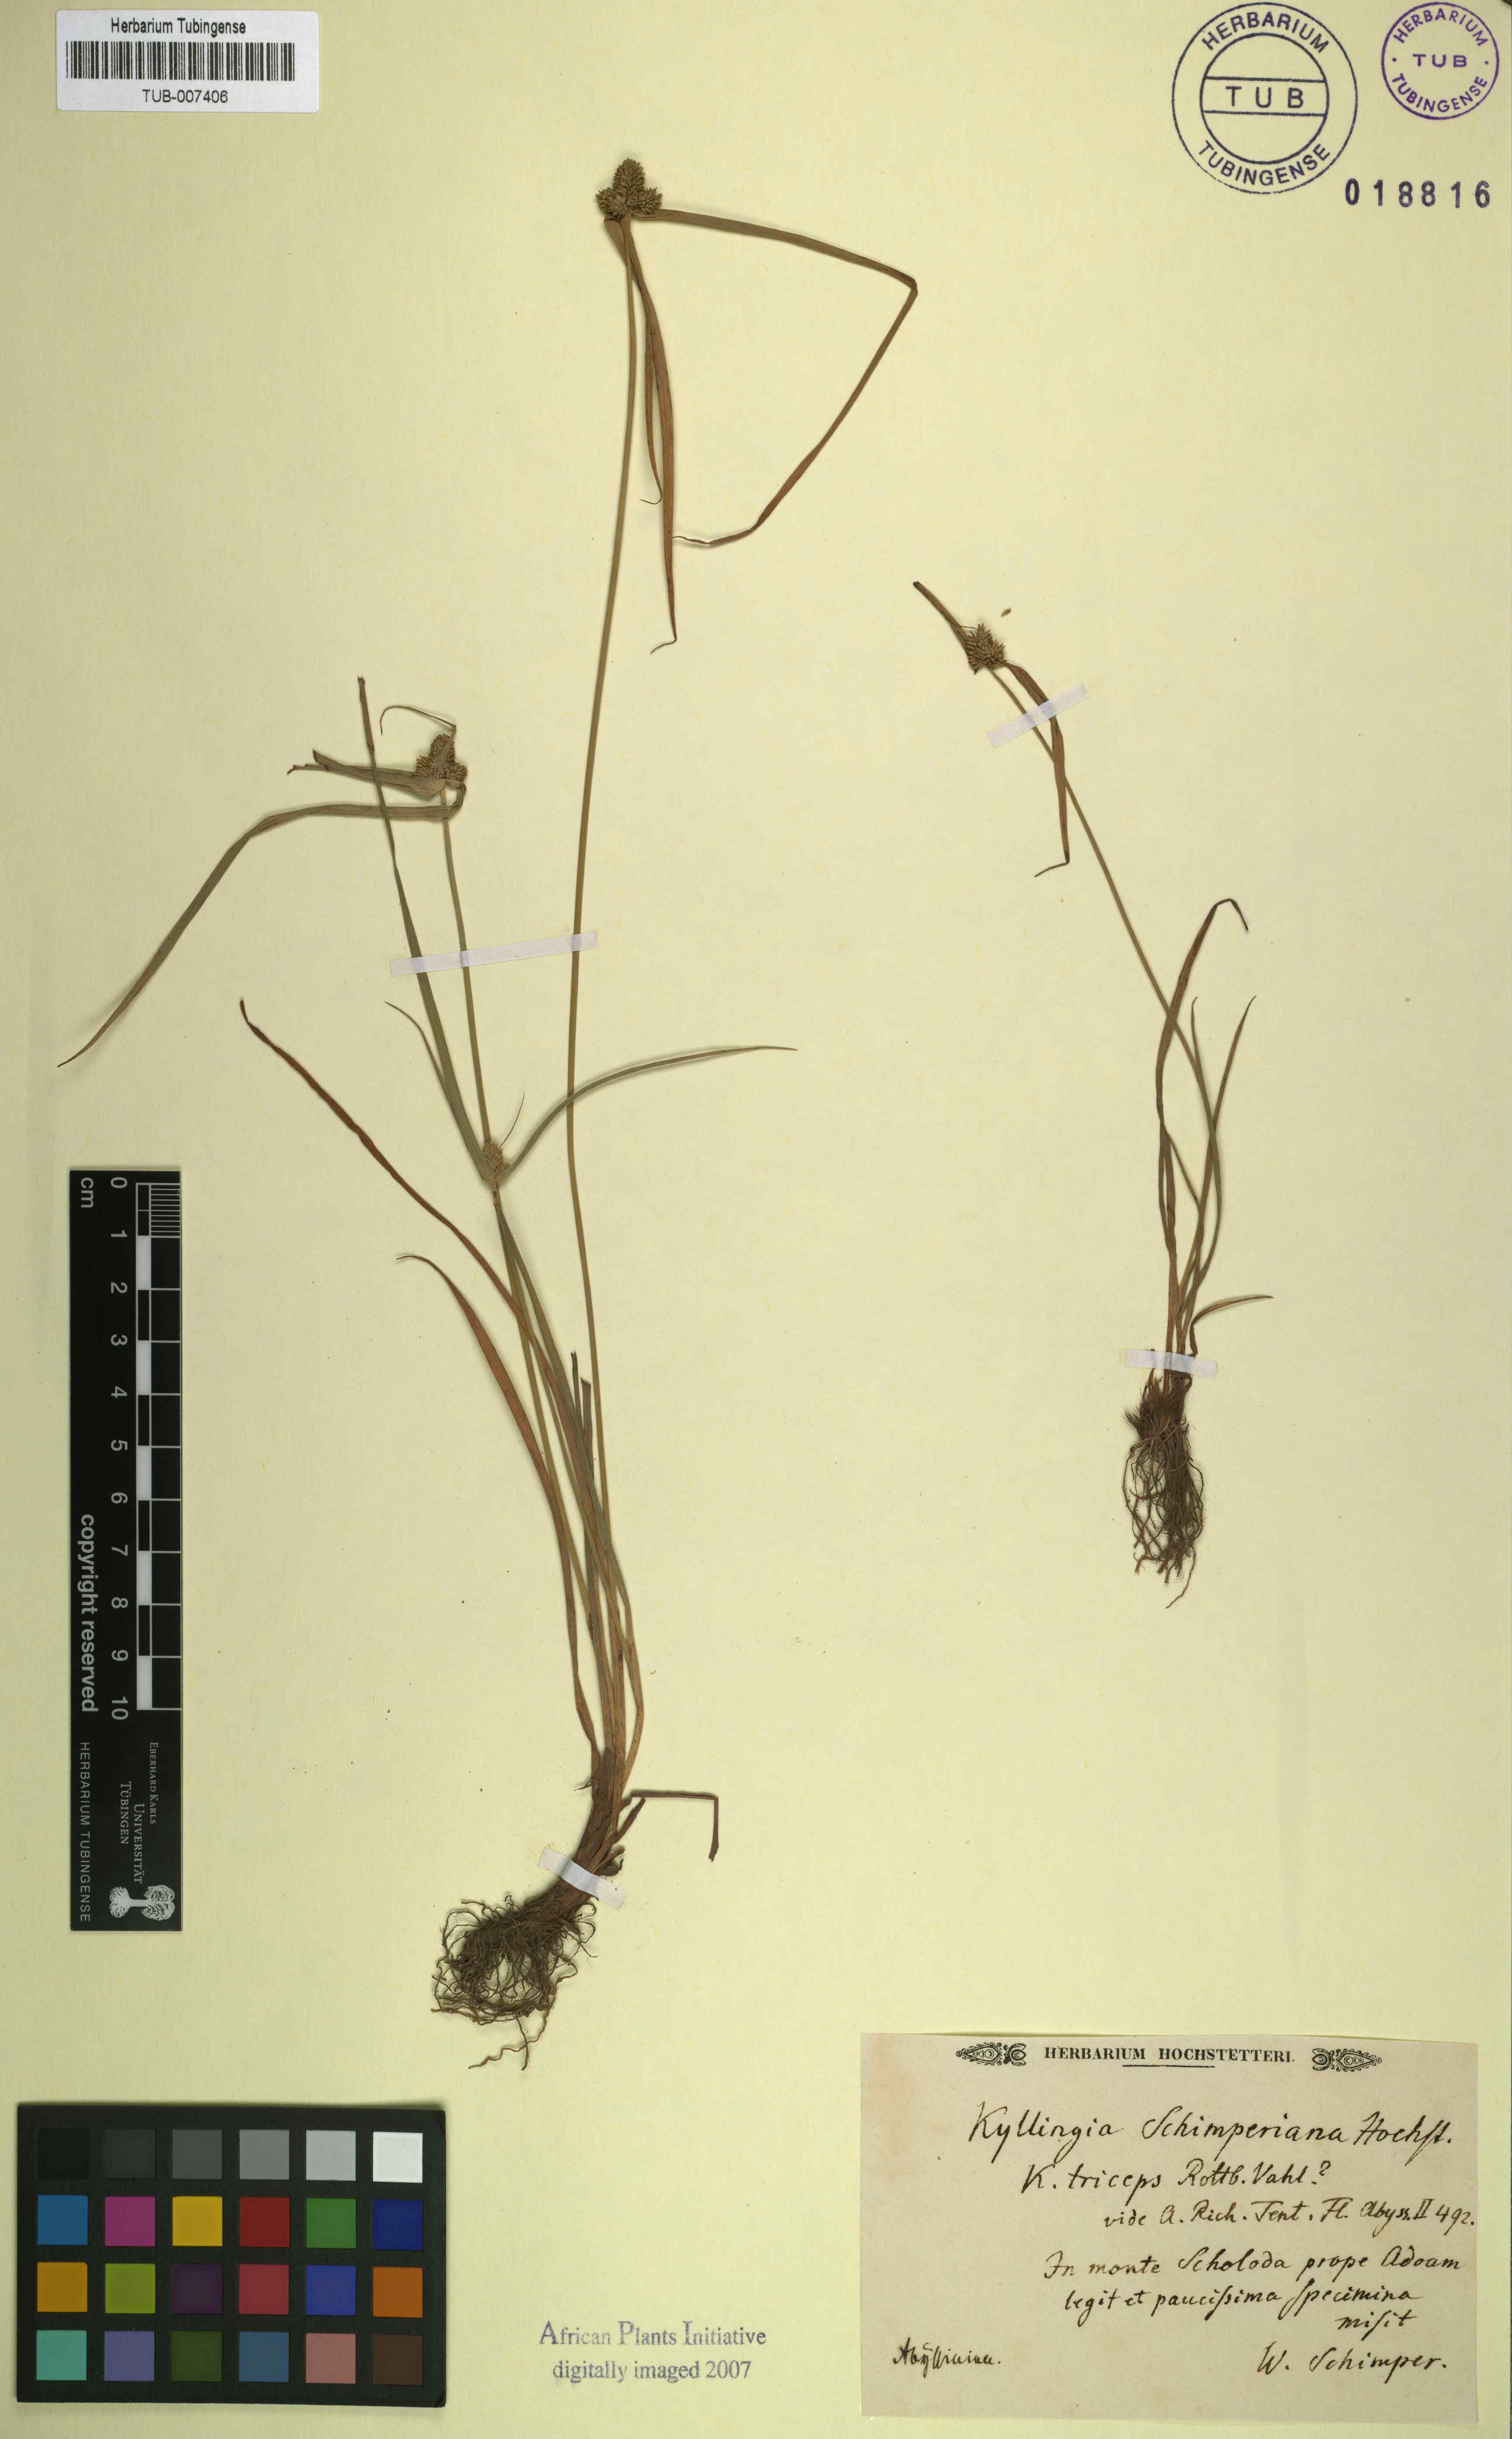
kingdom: Plantae
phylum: Tracheophyta
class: Liliopsida
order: Poales
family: Cyperaceae
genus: Cyperus
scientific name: Cyperus richardii
